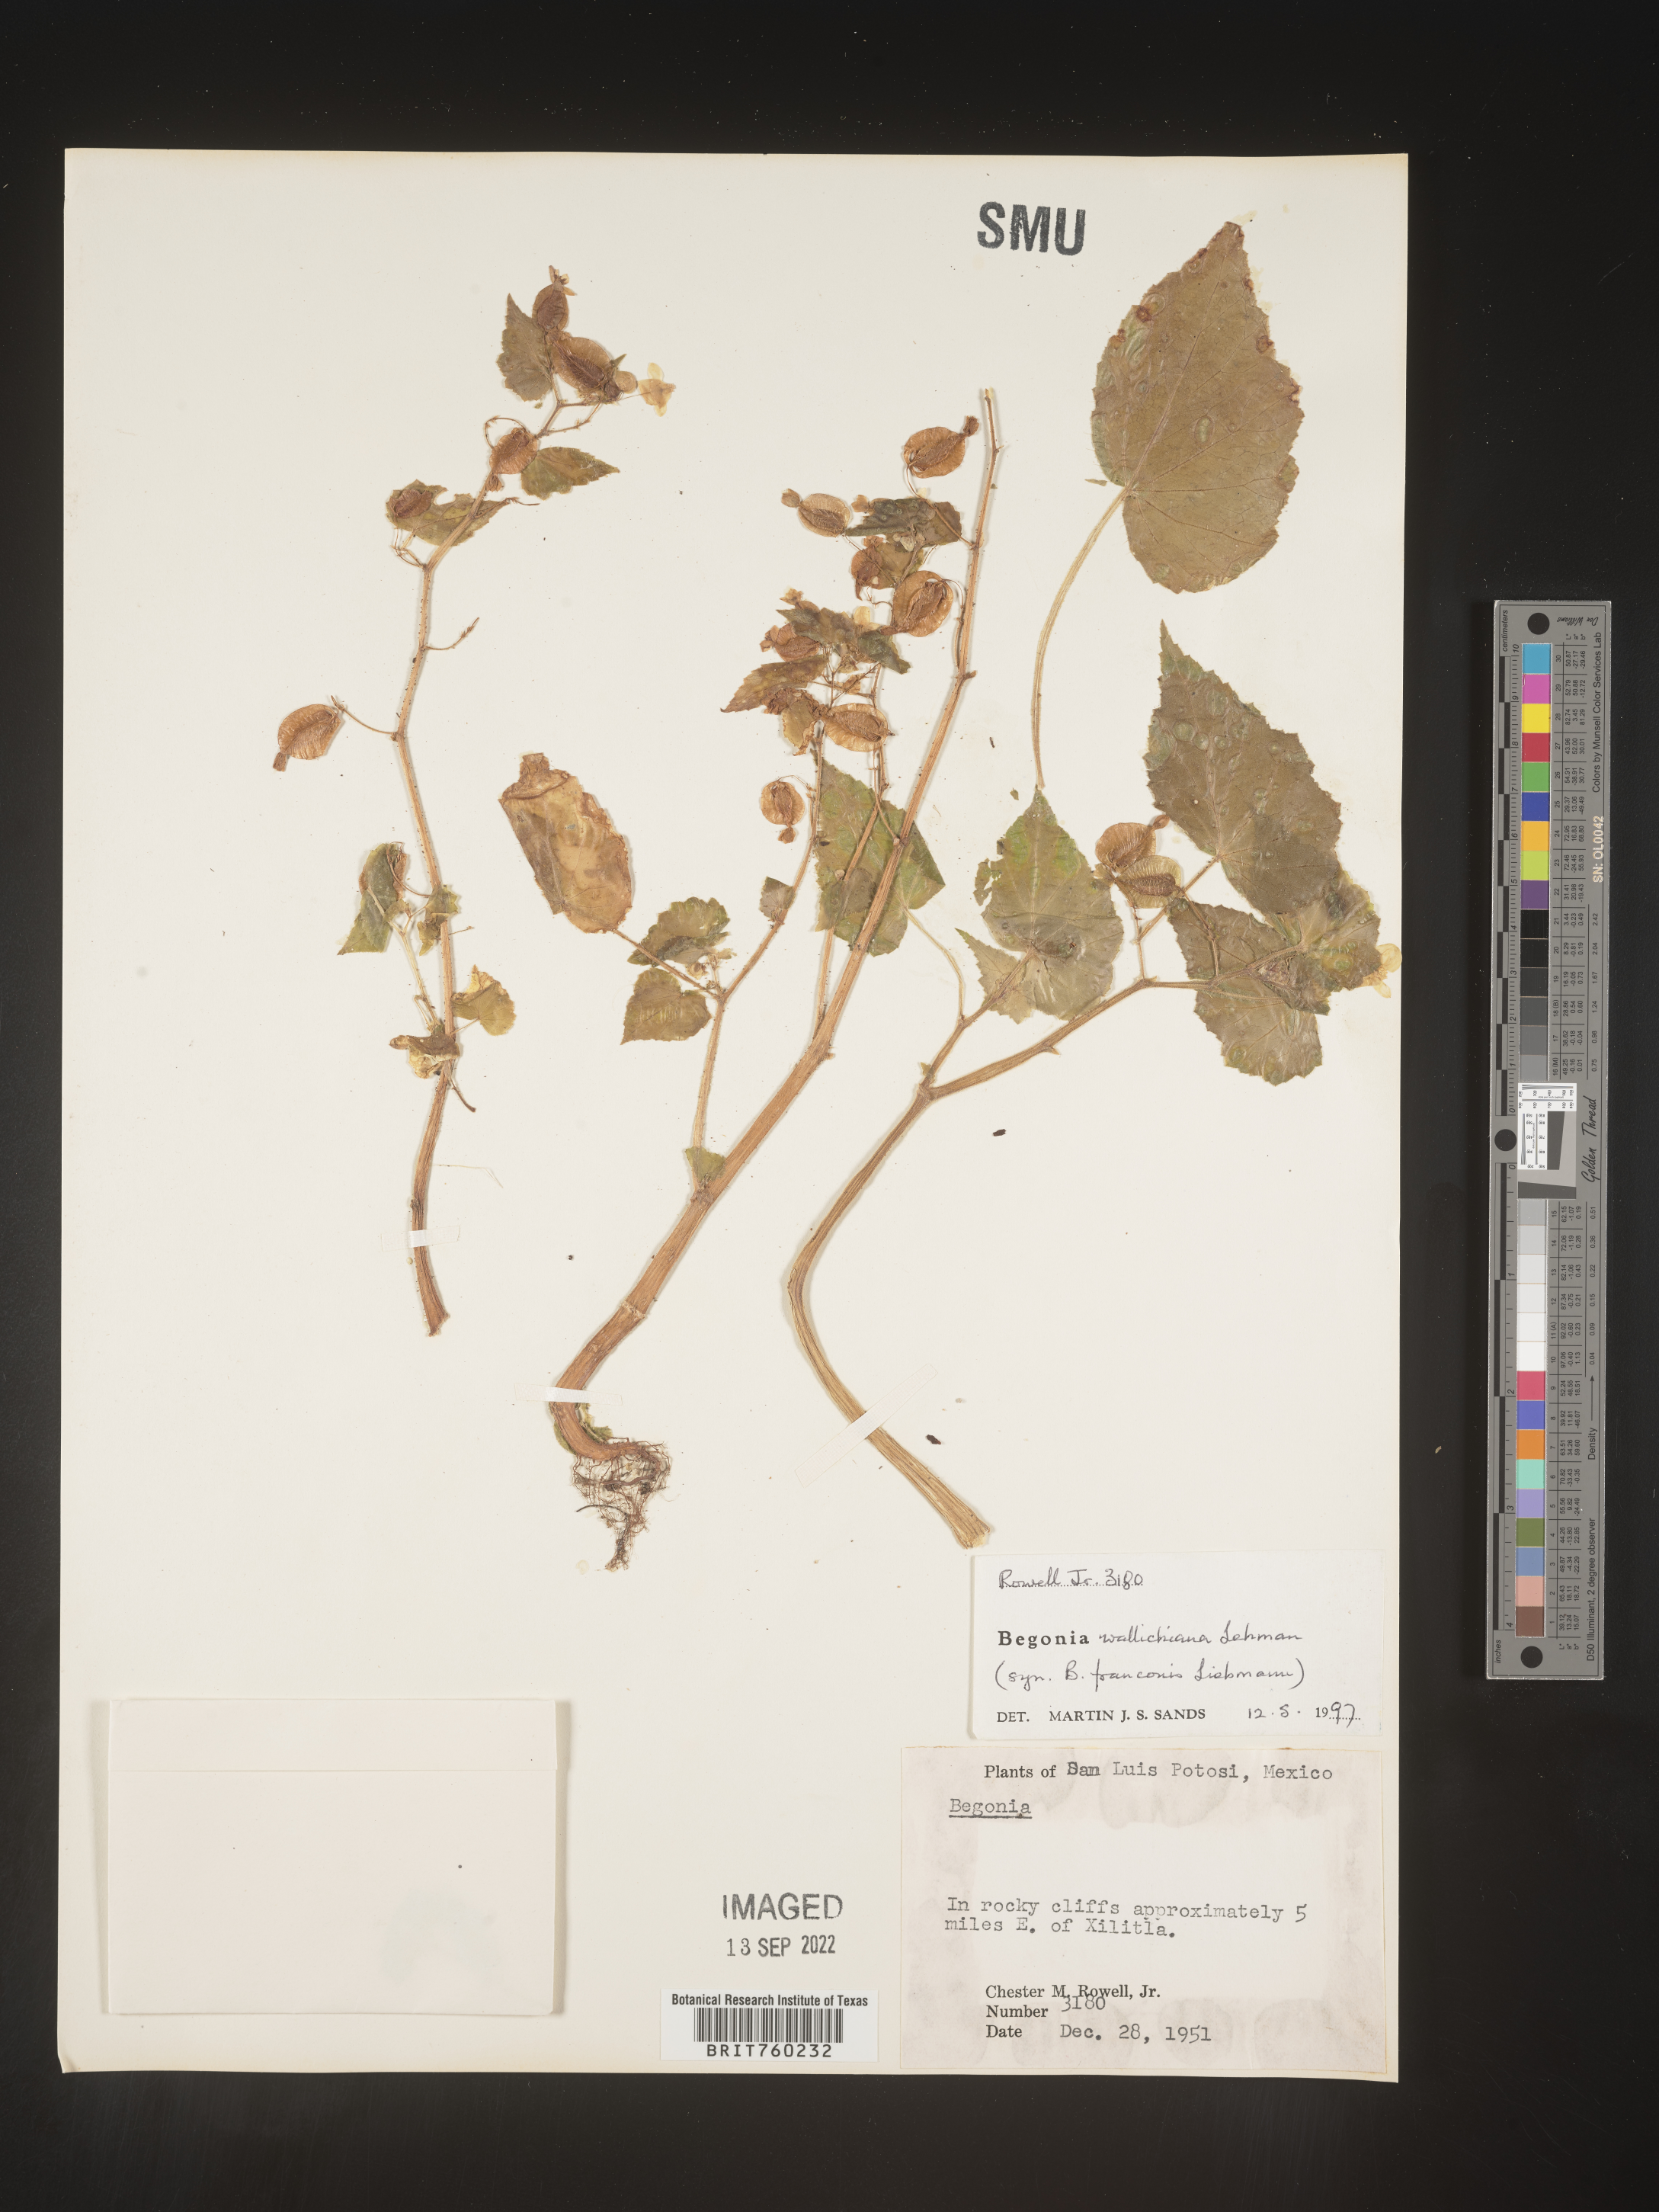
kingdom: Plantae
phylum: Tracheophyta
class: Magnoliopsida
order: Cucurbitales
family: Begoniaceae
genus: Begonia
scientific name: Begonia
